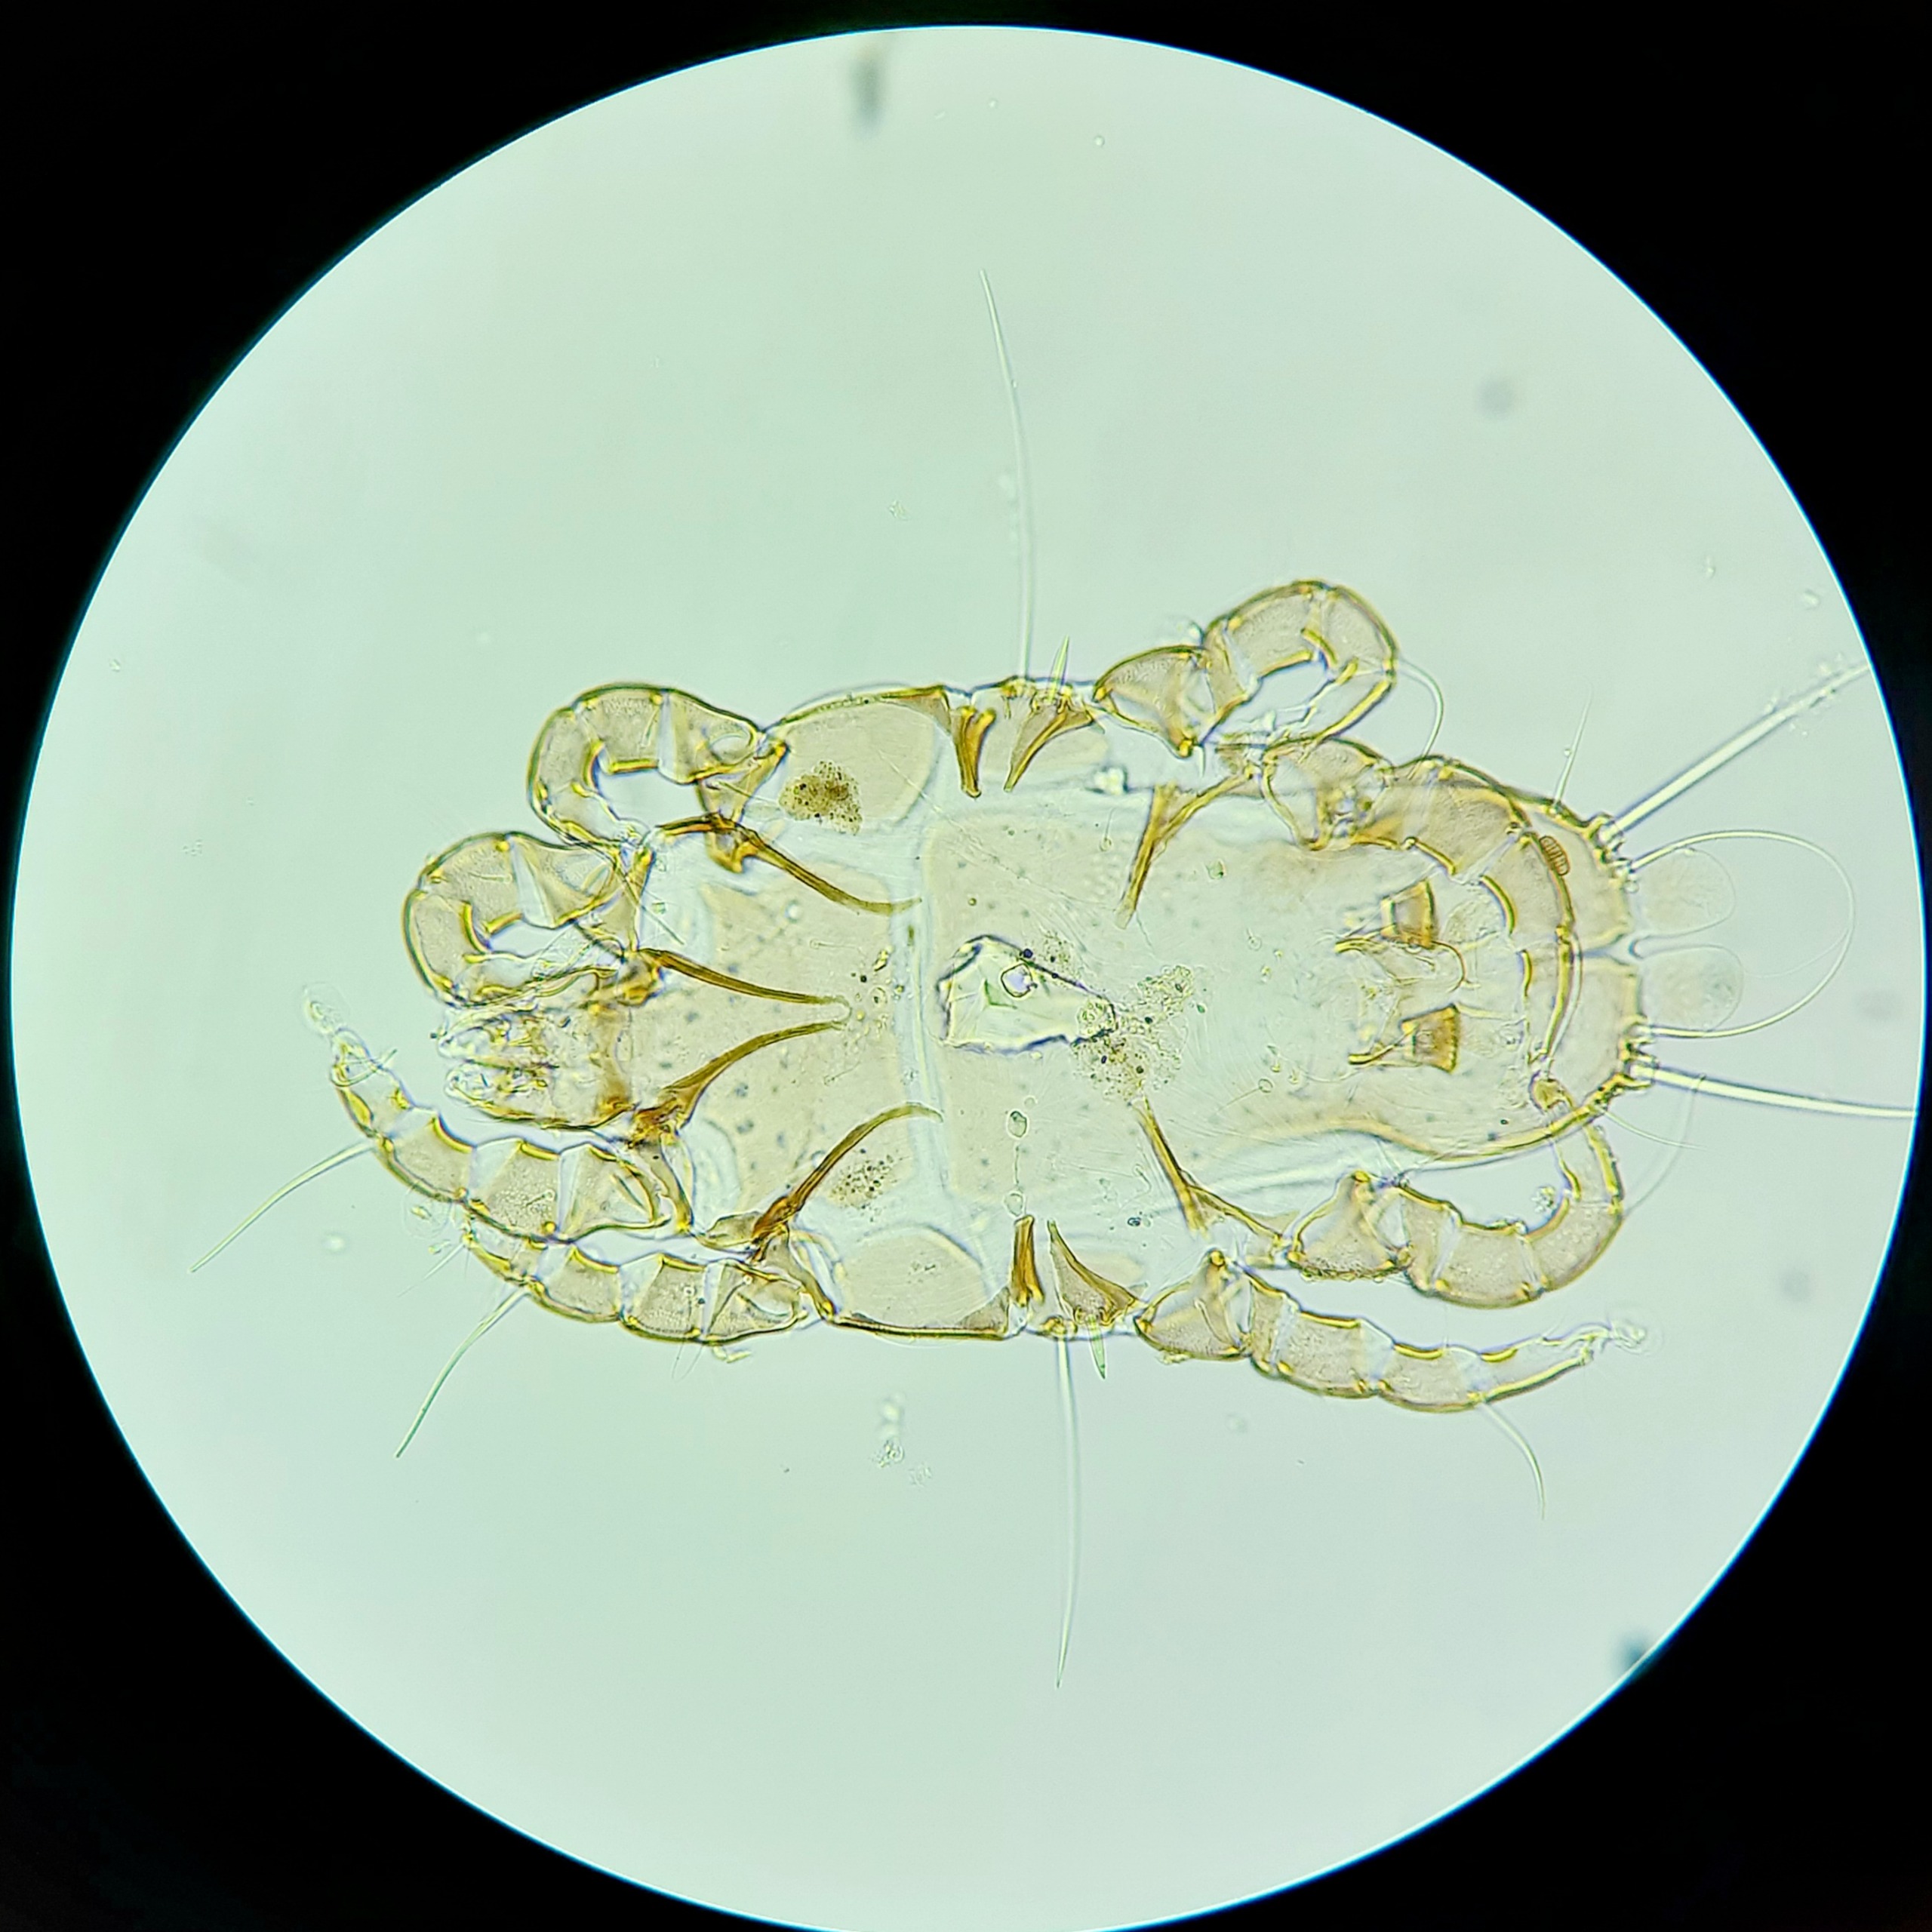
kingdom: Animalia
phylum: Arthropoda
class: Arachnida
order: Sarcoptiformes
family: Proctophyllodidae
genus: Proctophyllodes
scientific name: Proctophyllodes stylifer
